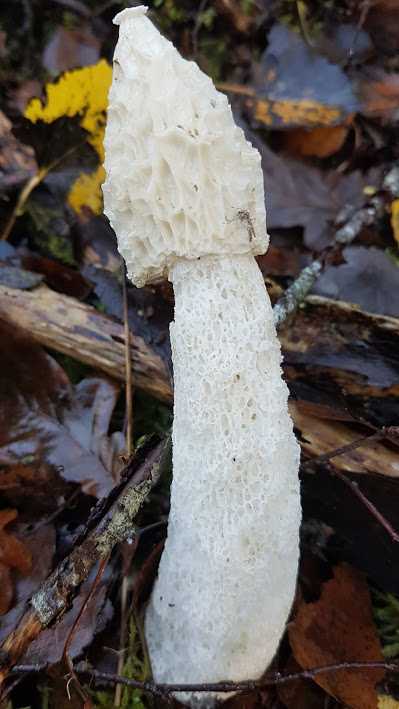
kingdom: Fungi
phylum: Basidiomycota
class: Agaricomycetes
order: Phallales
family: Phallaceae
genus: Phallus
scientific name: Phallus impudicus
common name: almindelig stinksvamp
